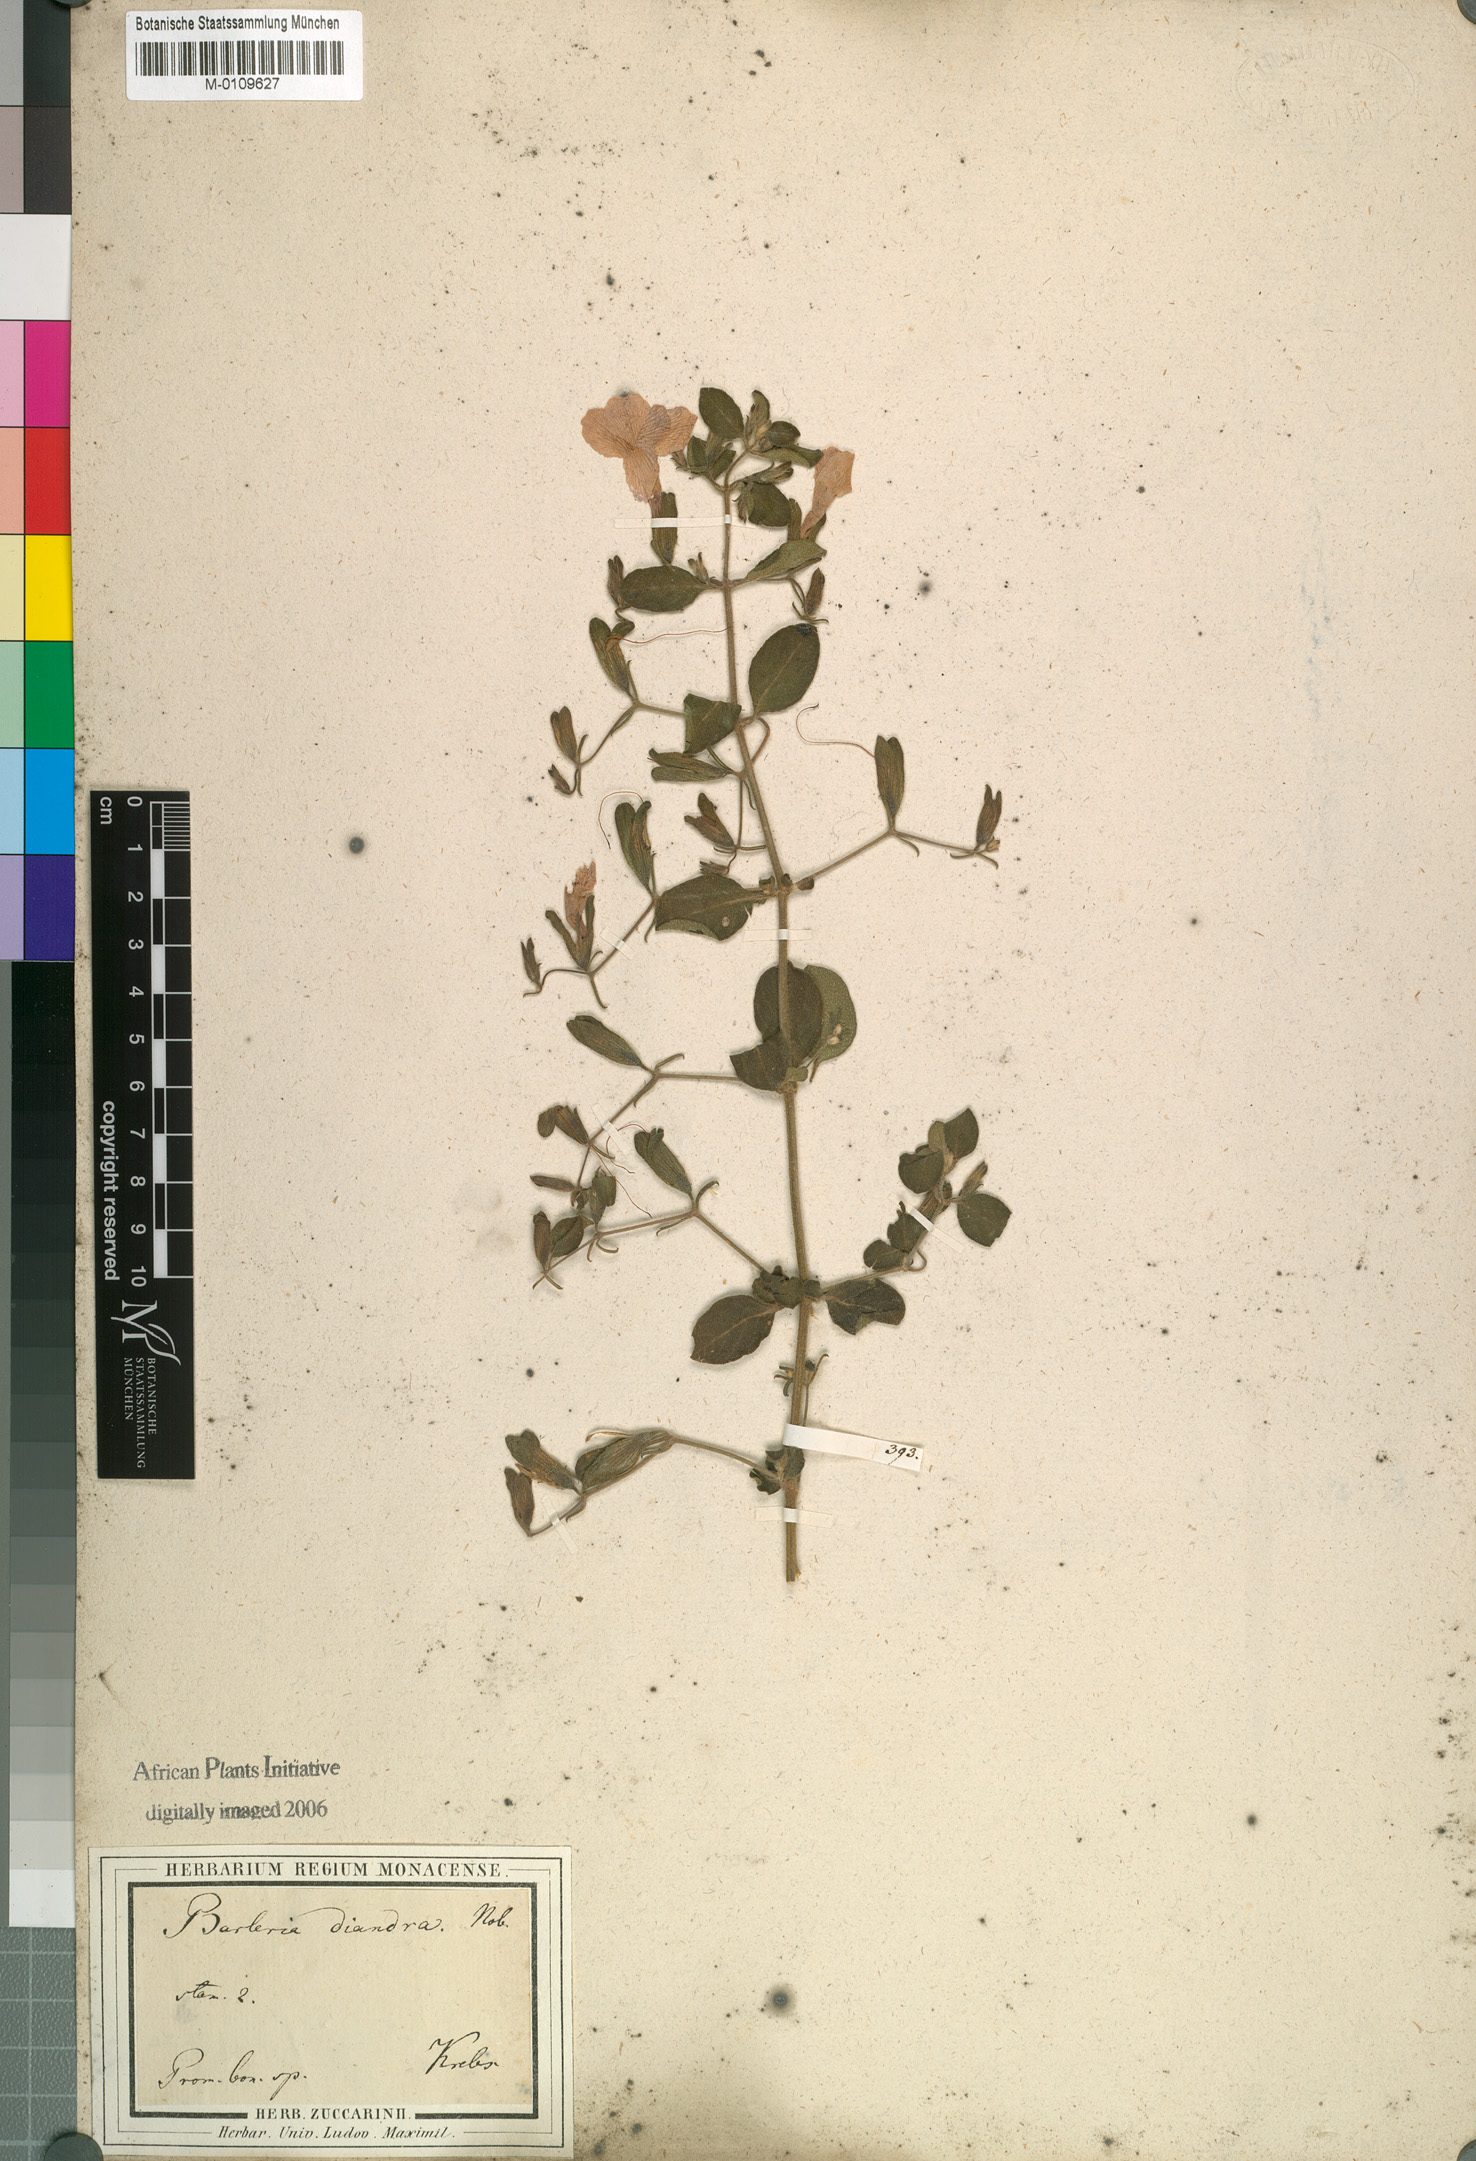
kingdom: Plantae
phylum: Tracheophyta
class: Magnoliopsida
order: Lamiales
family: Acanthaceae
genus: Barleria
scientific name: Barleria obtusa
